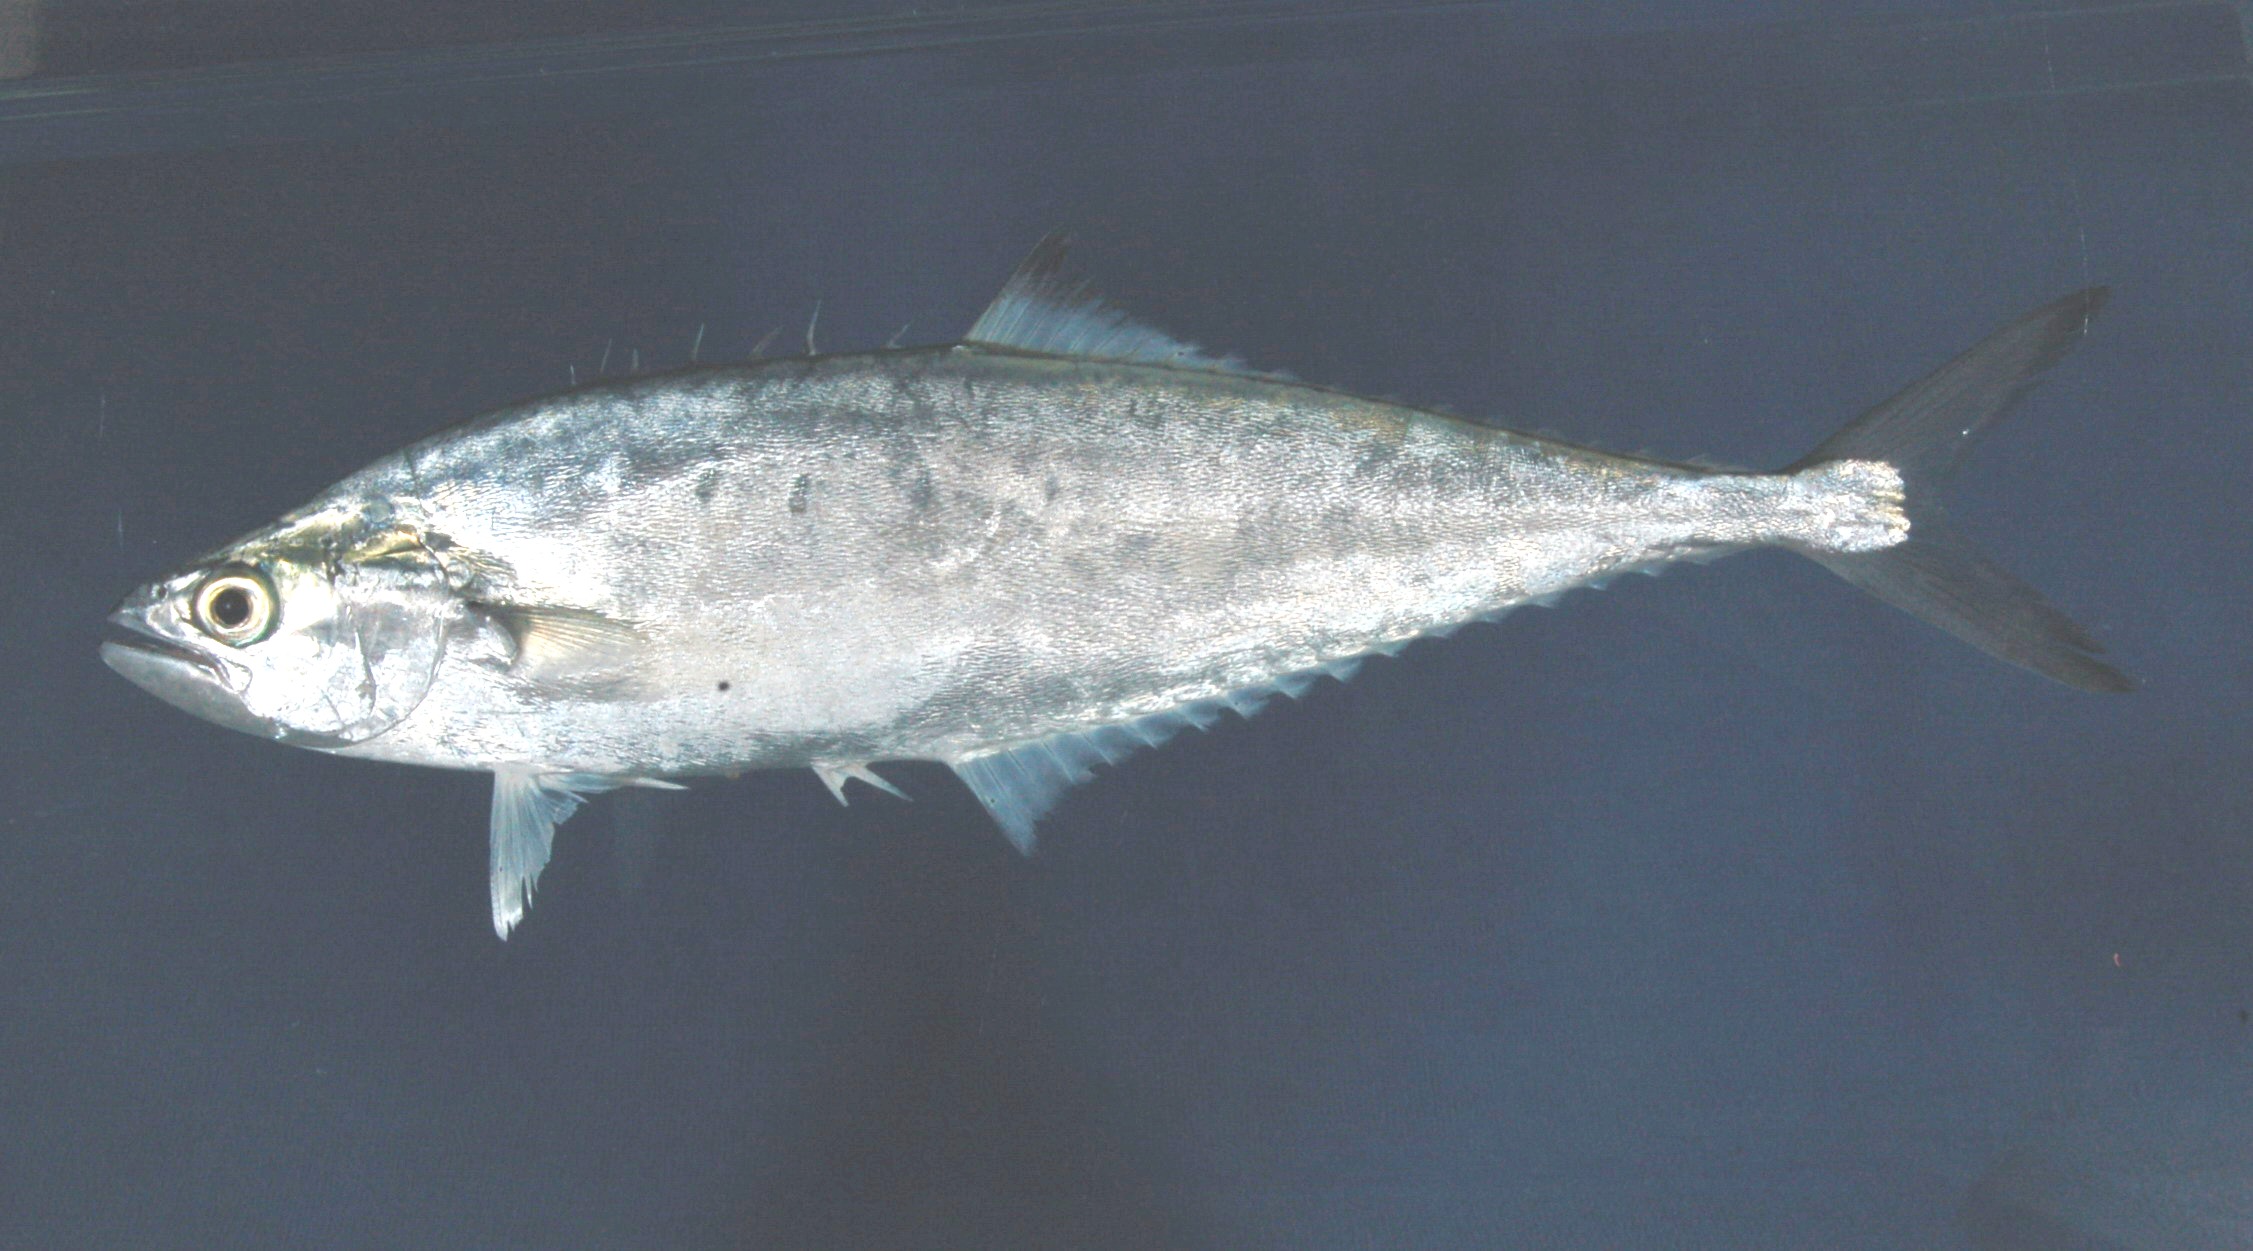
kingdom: Animalia
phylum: Chordata
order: Perciformes
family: Carangidae
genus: Scomberoides
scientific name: Scomberoides tol
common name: Needlescaled queenfish
